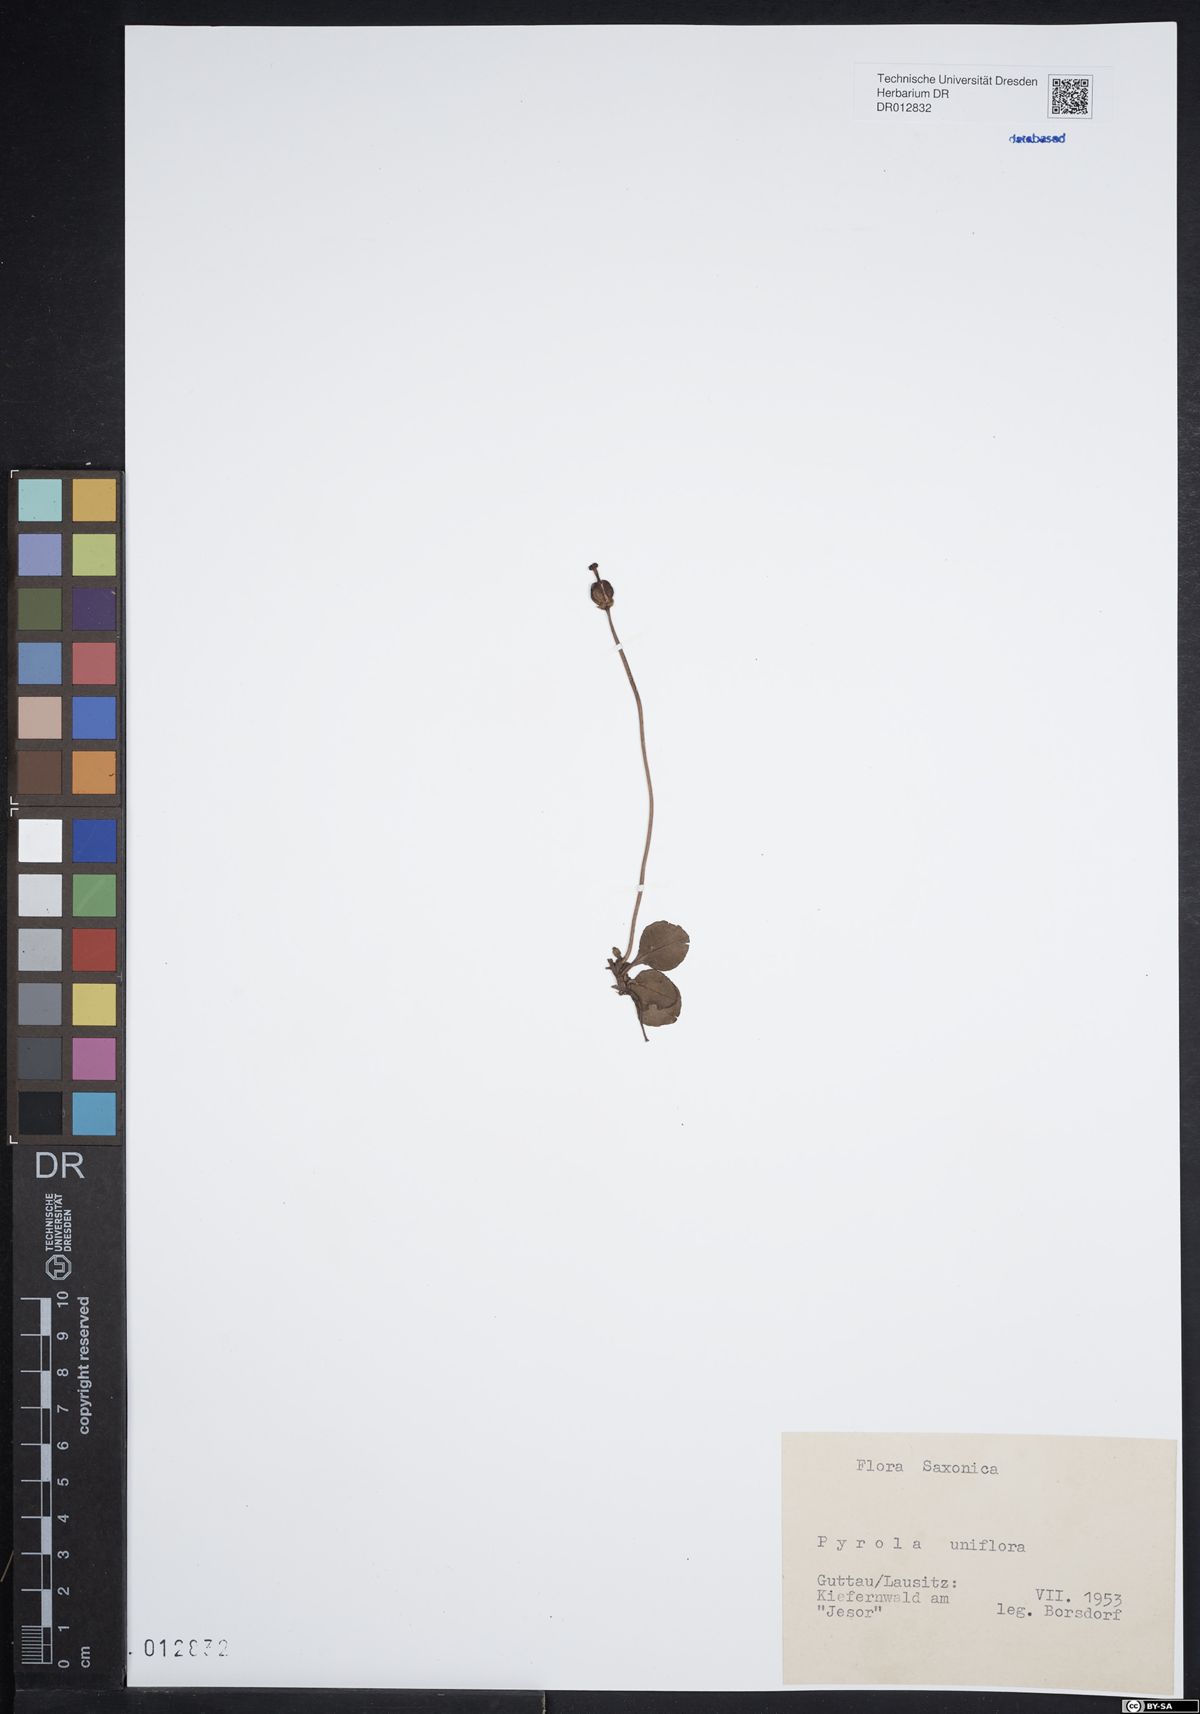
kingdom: Plantae
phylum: Tracheophyta
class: Magnoliopsida
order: Ericales
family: Ericaceae
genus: Moneses
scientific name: Moneses uniflora
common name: One-flowered wintergreen
